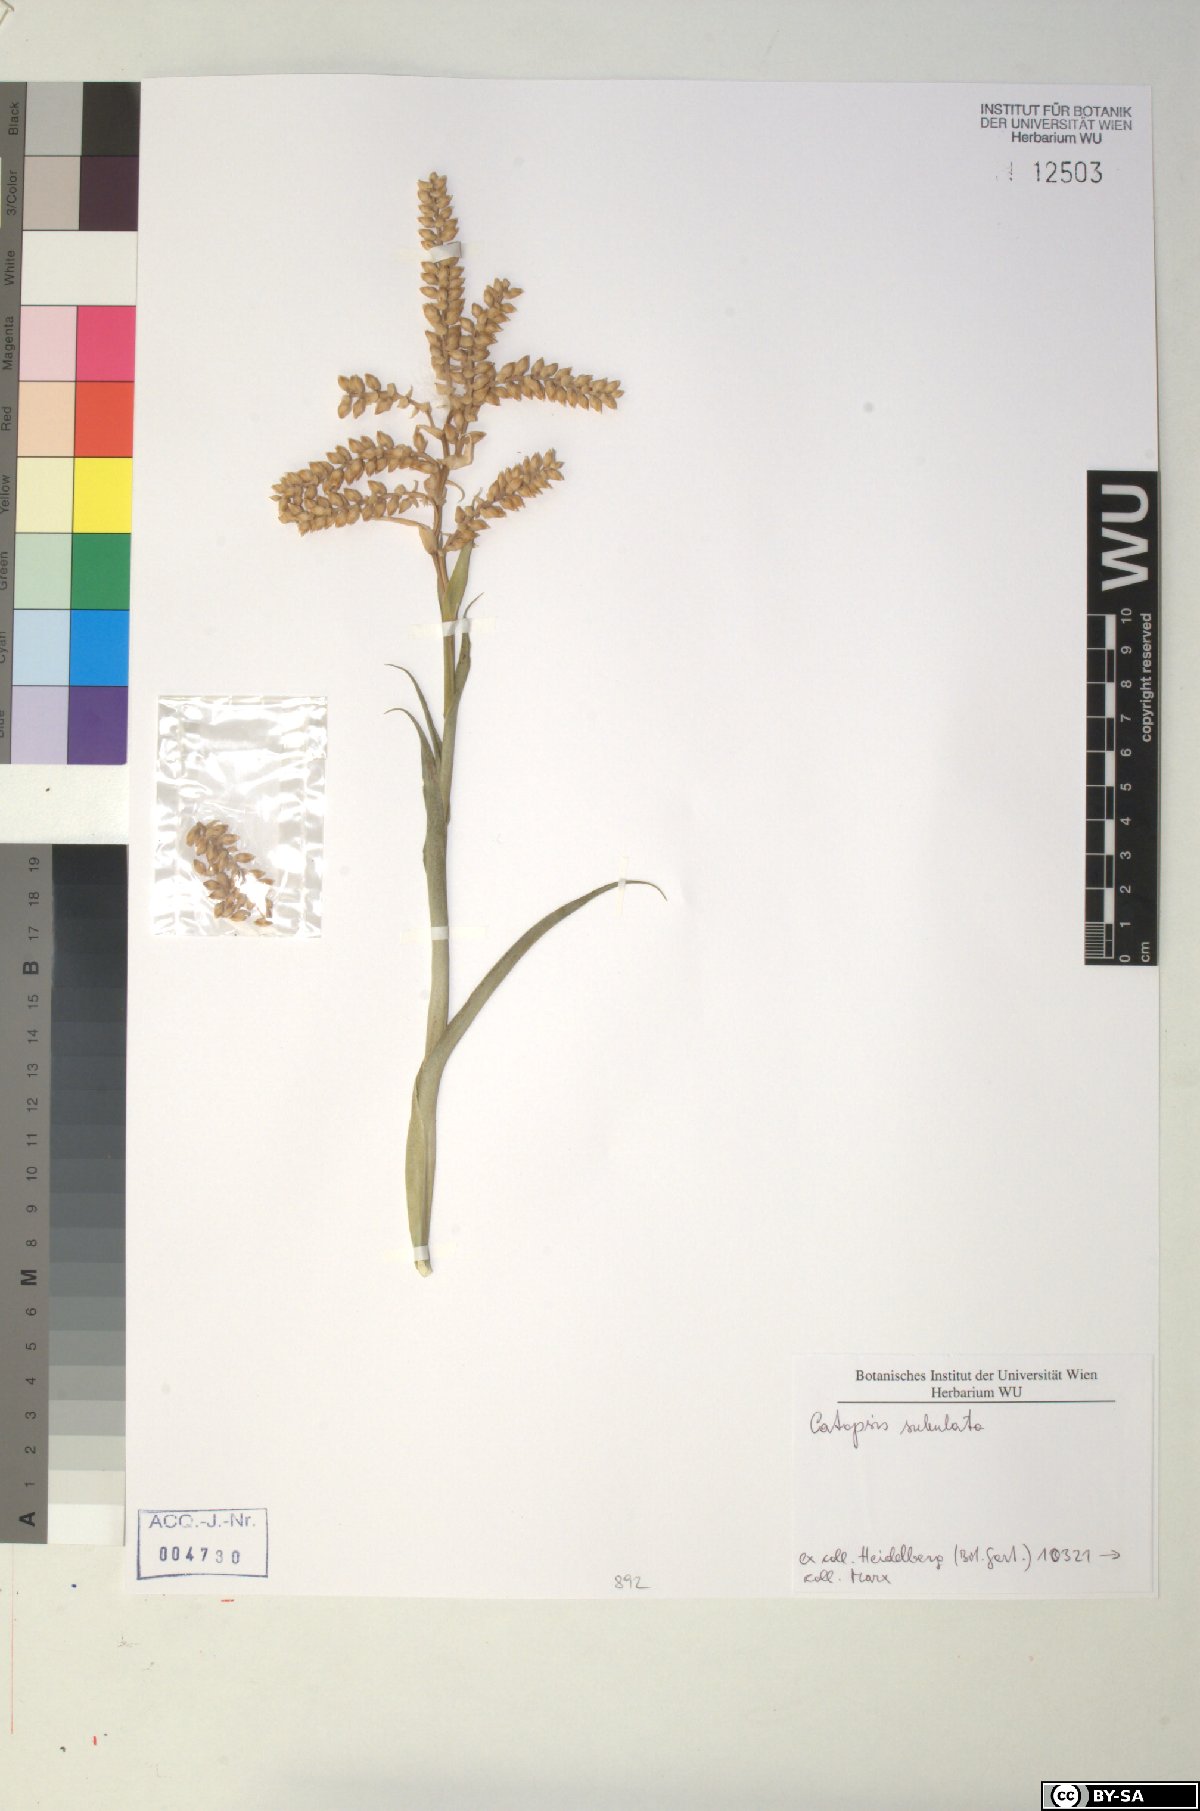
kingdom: Plantae
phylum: Tracheophyta
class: Liliopsida
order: Poales
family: Bromeliaceae
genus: Catopsis
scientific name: Catopsis subulata
